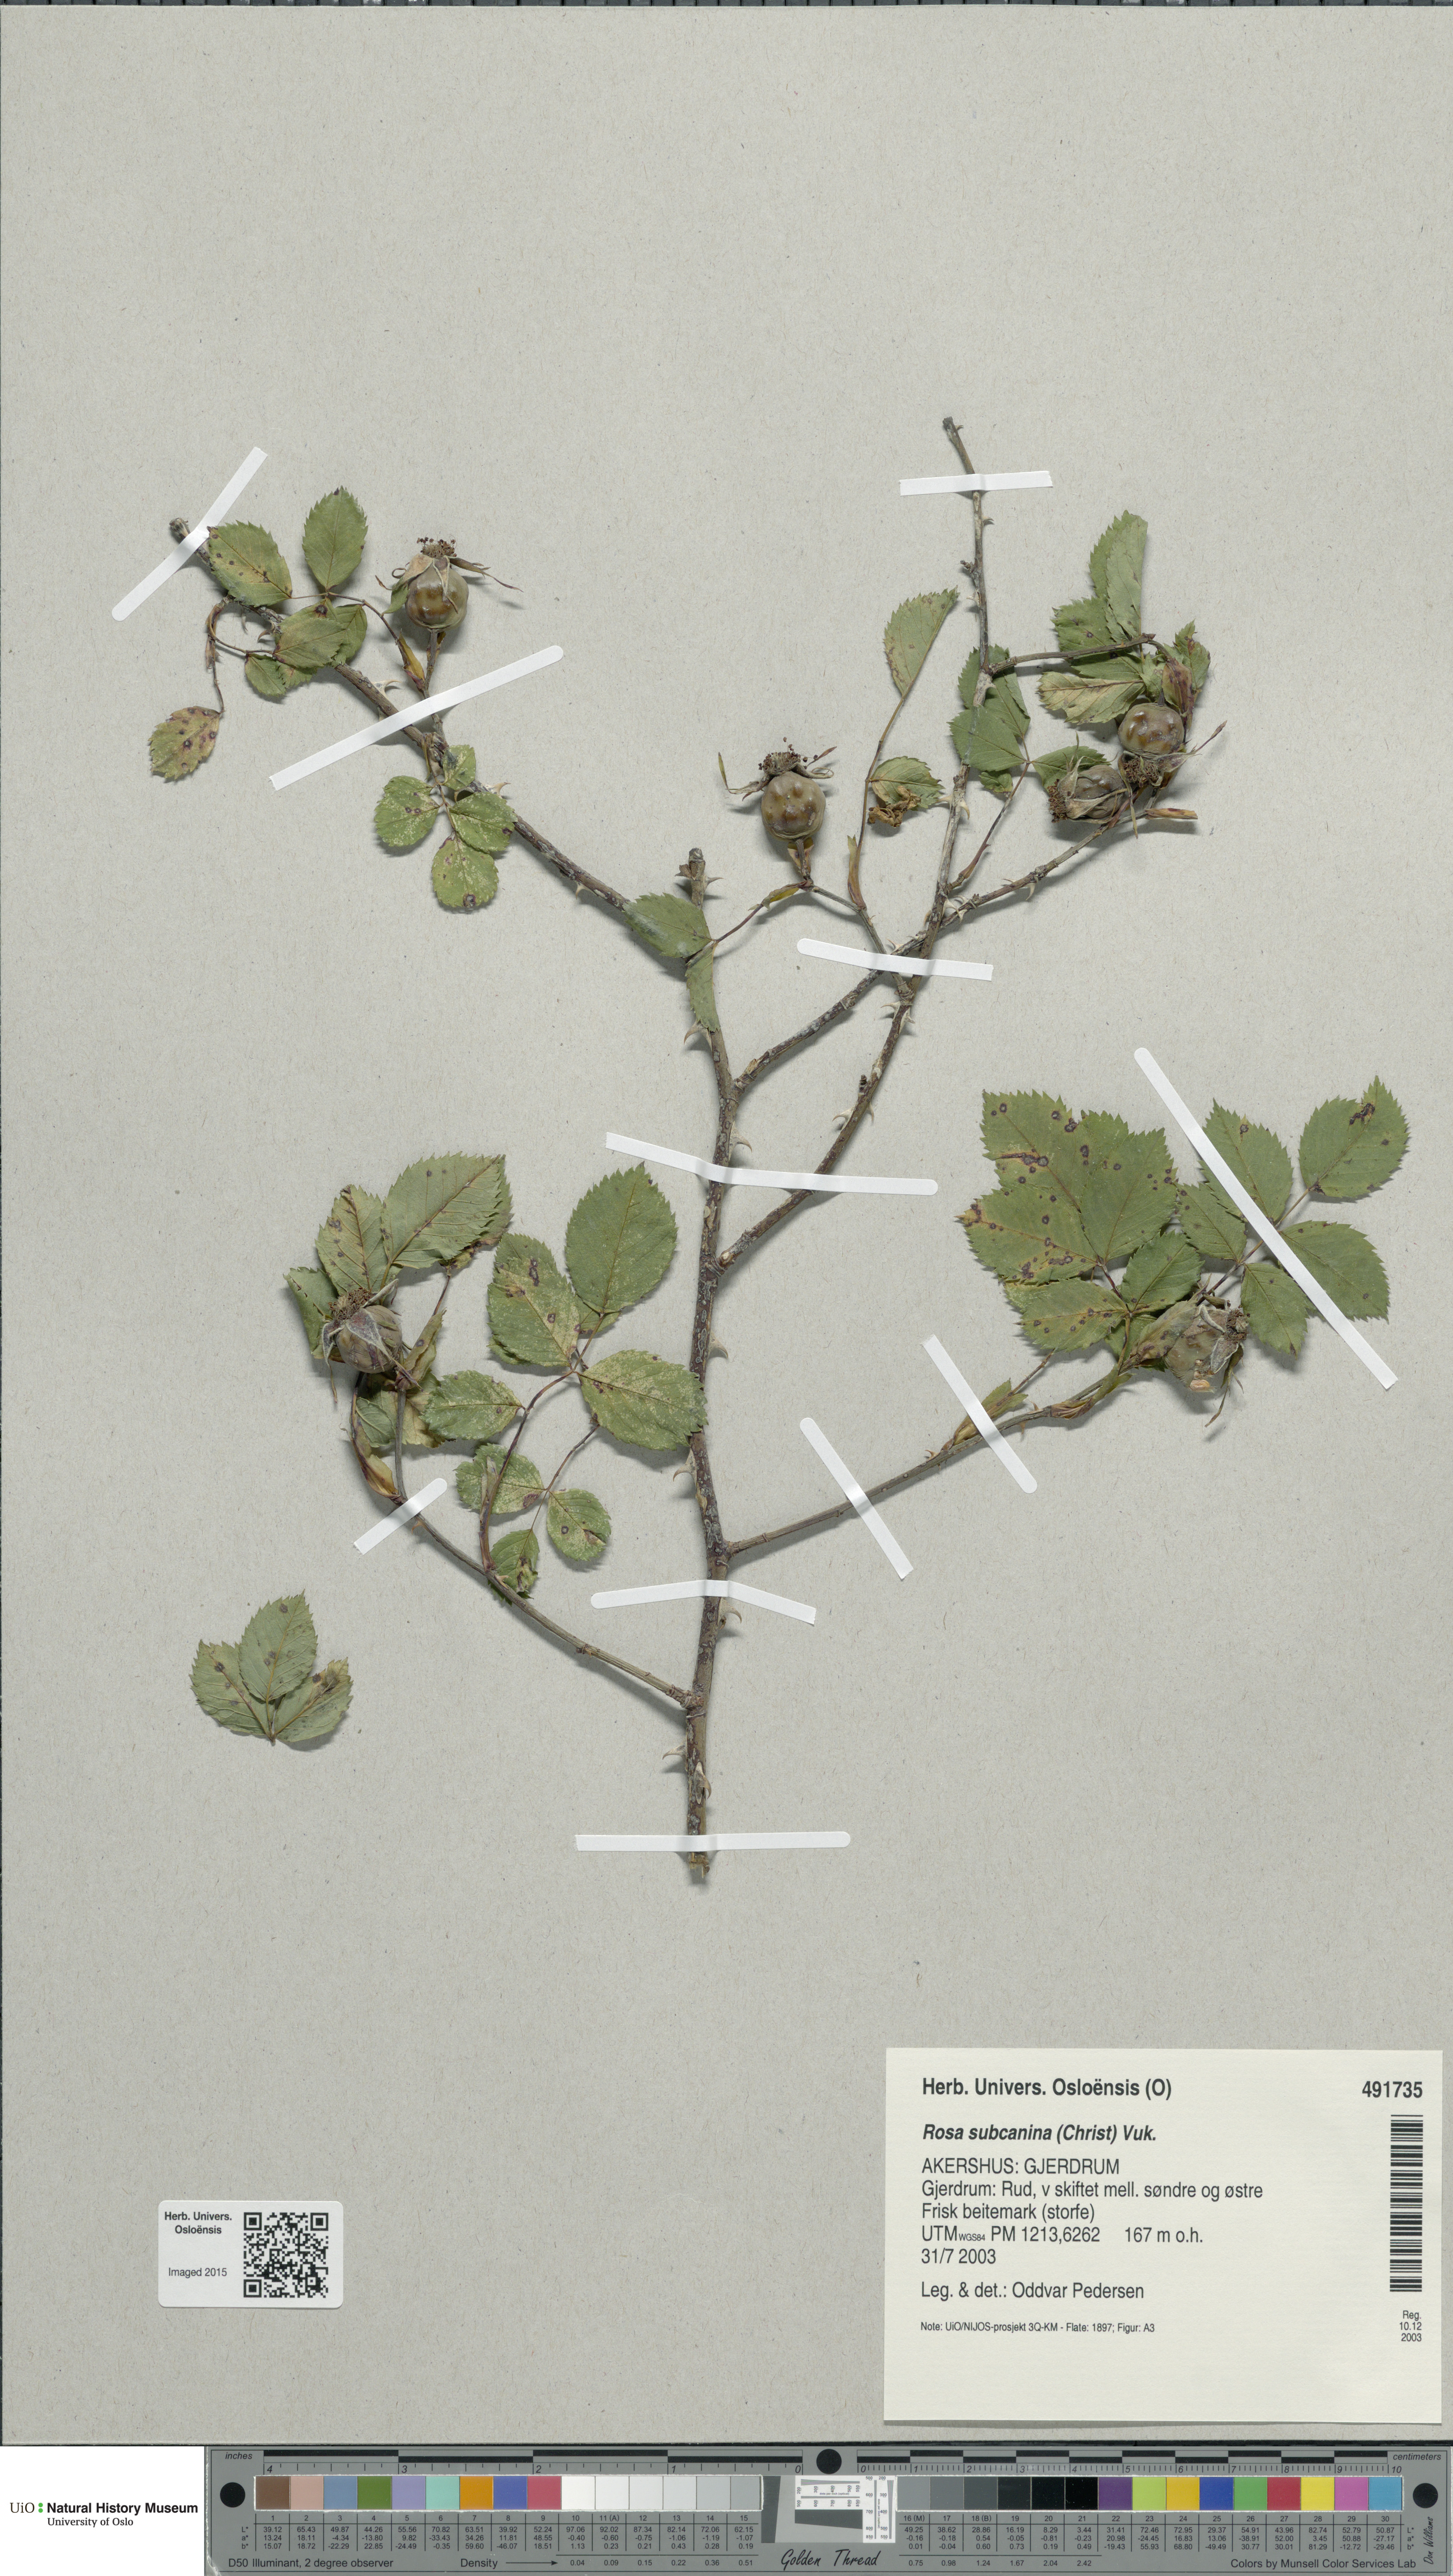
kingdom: Plantae
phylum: Tracheophyta
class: Magnoliopsida
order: Rosales
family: Rosaceae
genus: Rosa
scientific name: Rosa subcanina
